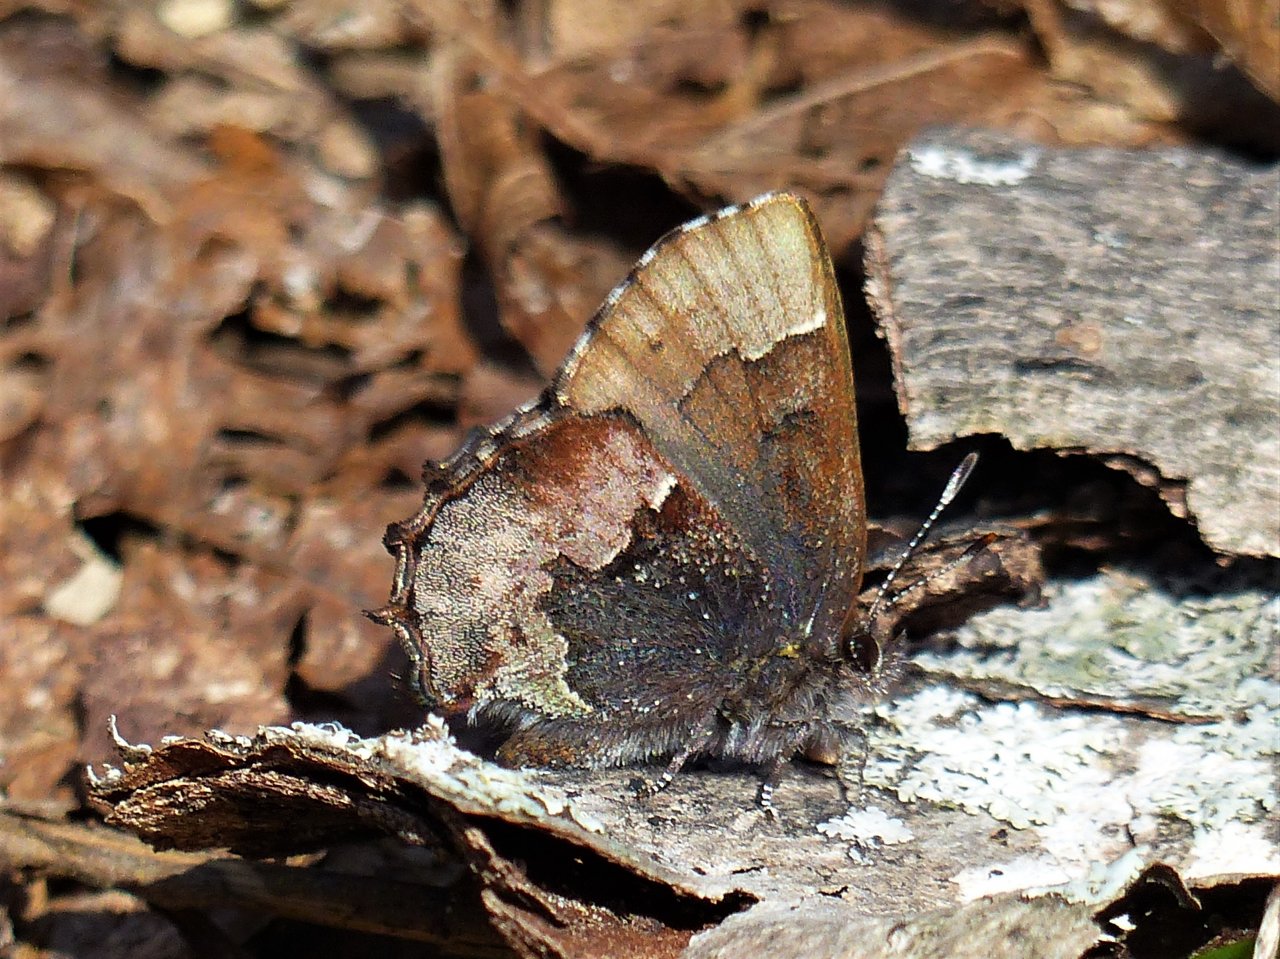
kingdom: Animalia
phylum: Arthropoda
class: Insecta
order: Lepidoptera
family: Lycaenidae
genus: Incisalia
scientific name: Incisalia henrici
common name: Henry's Elfin
